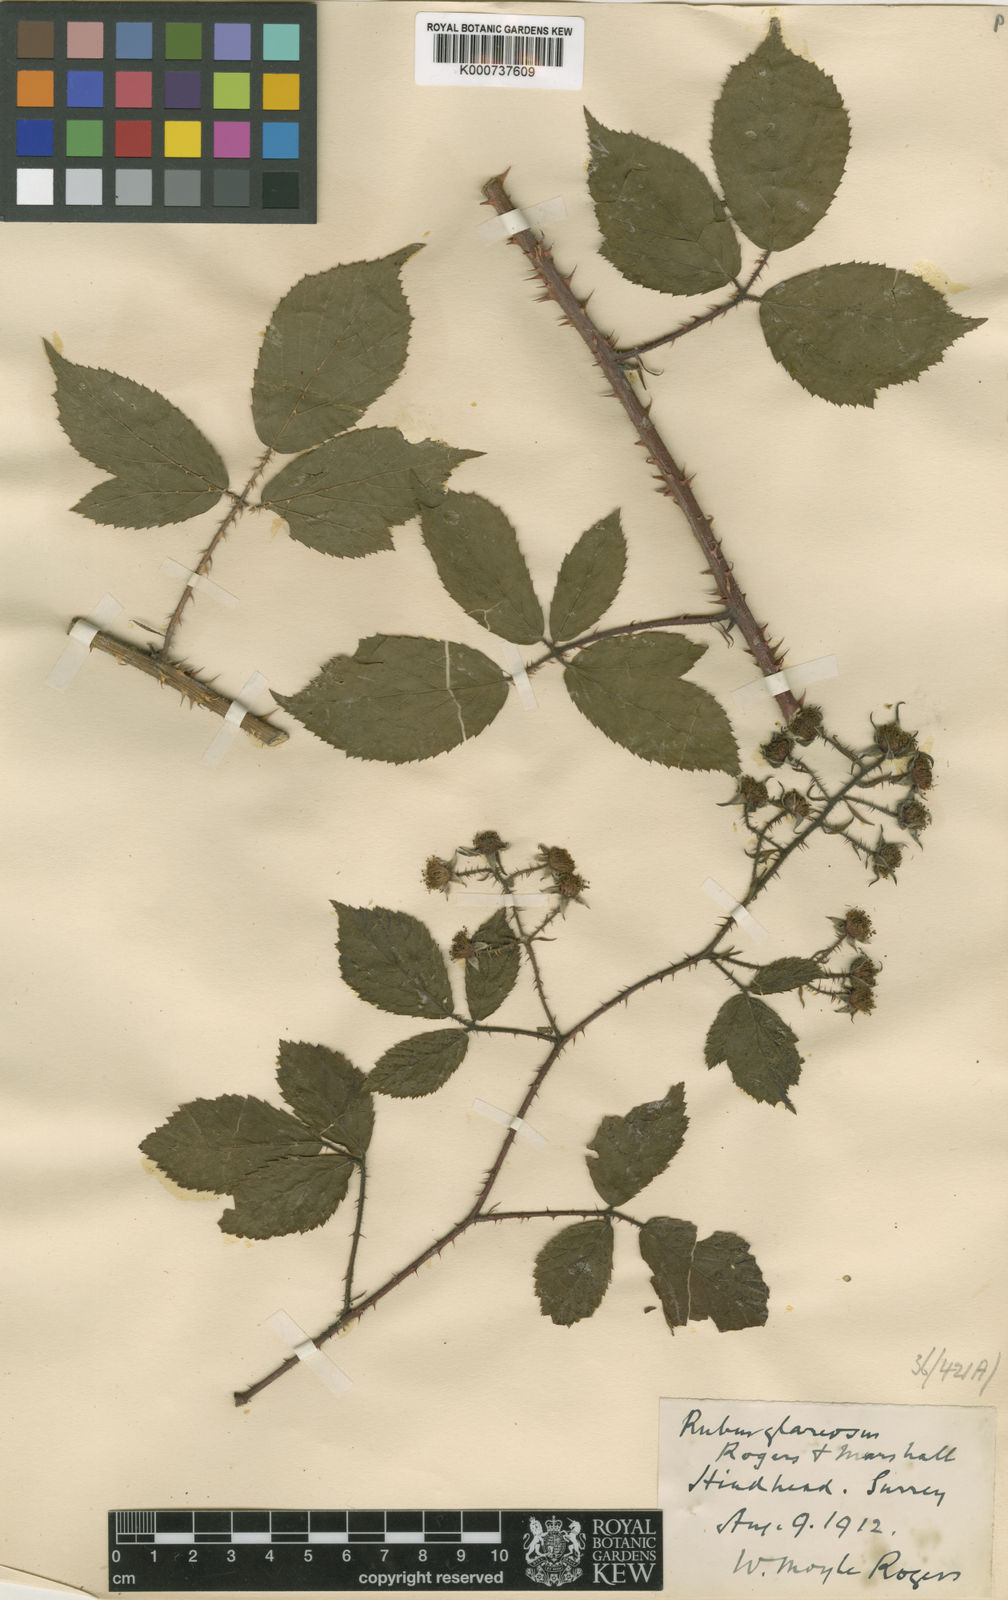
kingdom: Plantae
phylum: Tracheophyta
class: Magnoliopsida
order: Rosales
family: Rosaceae
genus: Rubus
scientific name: Rubus
